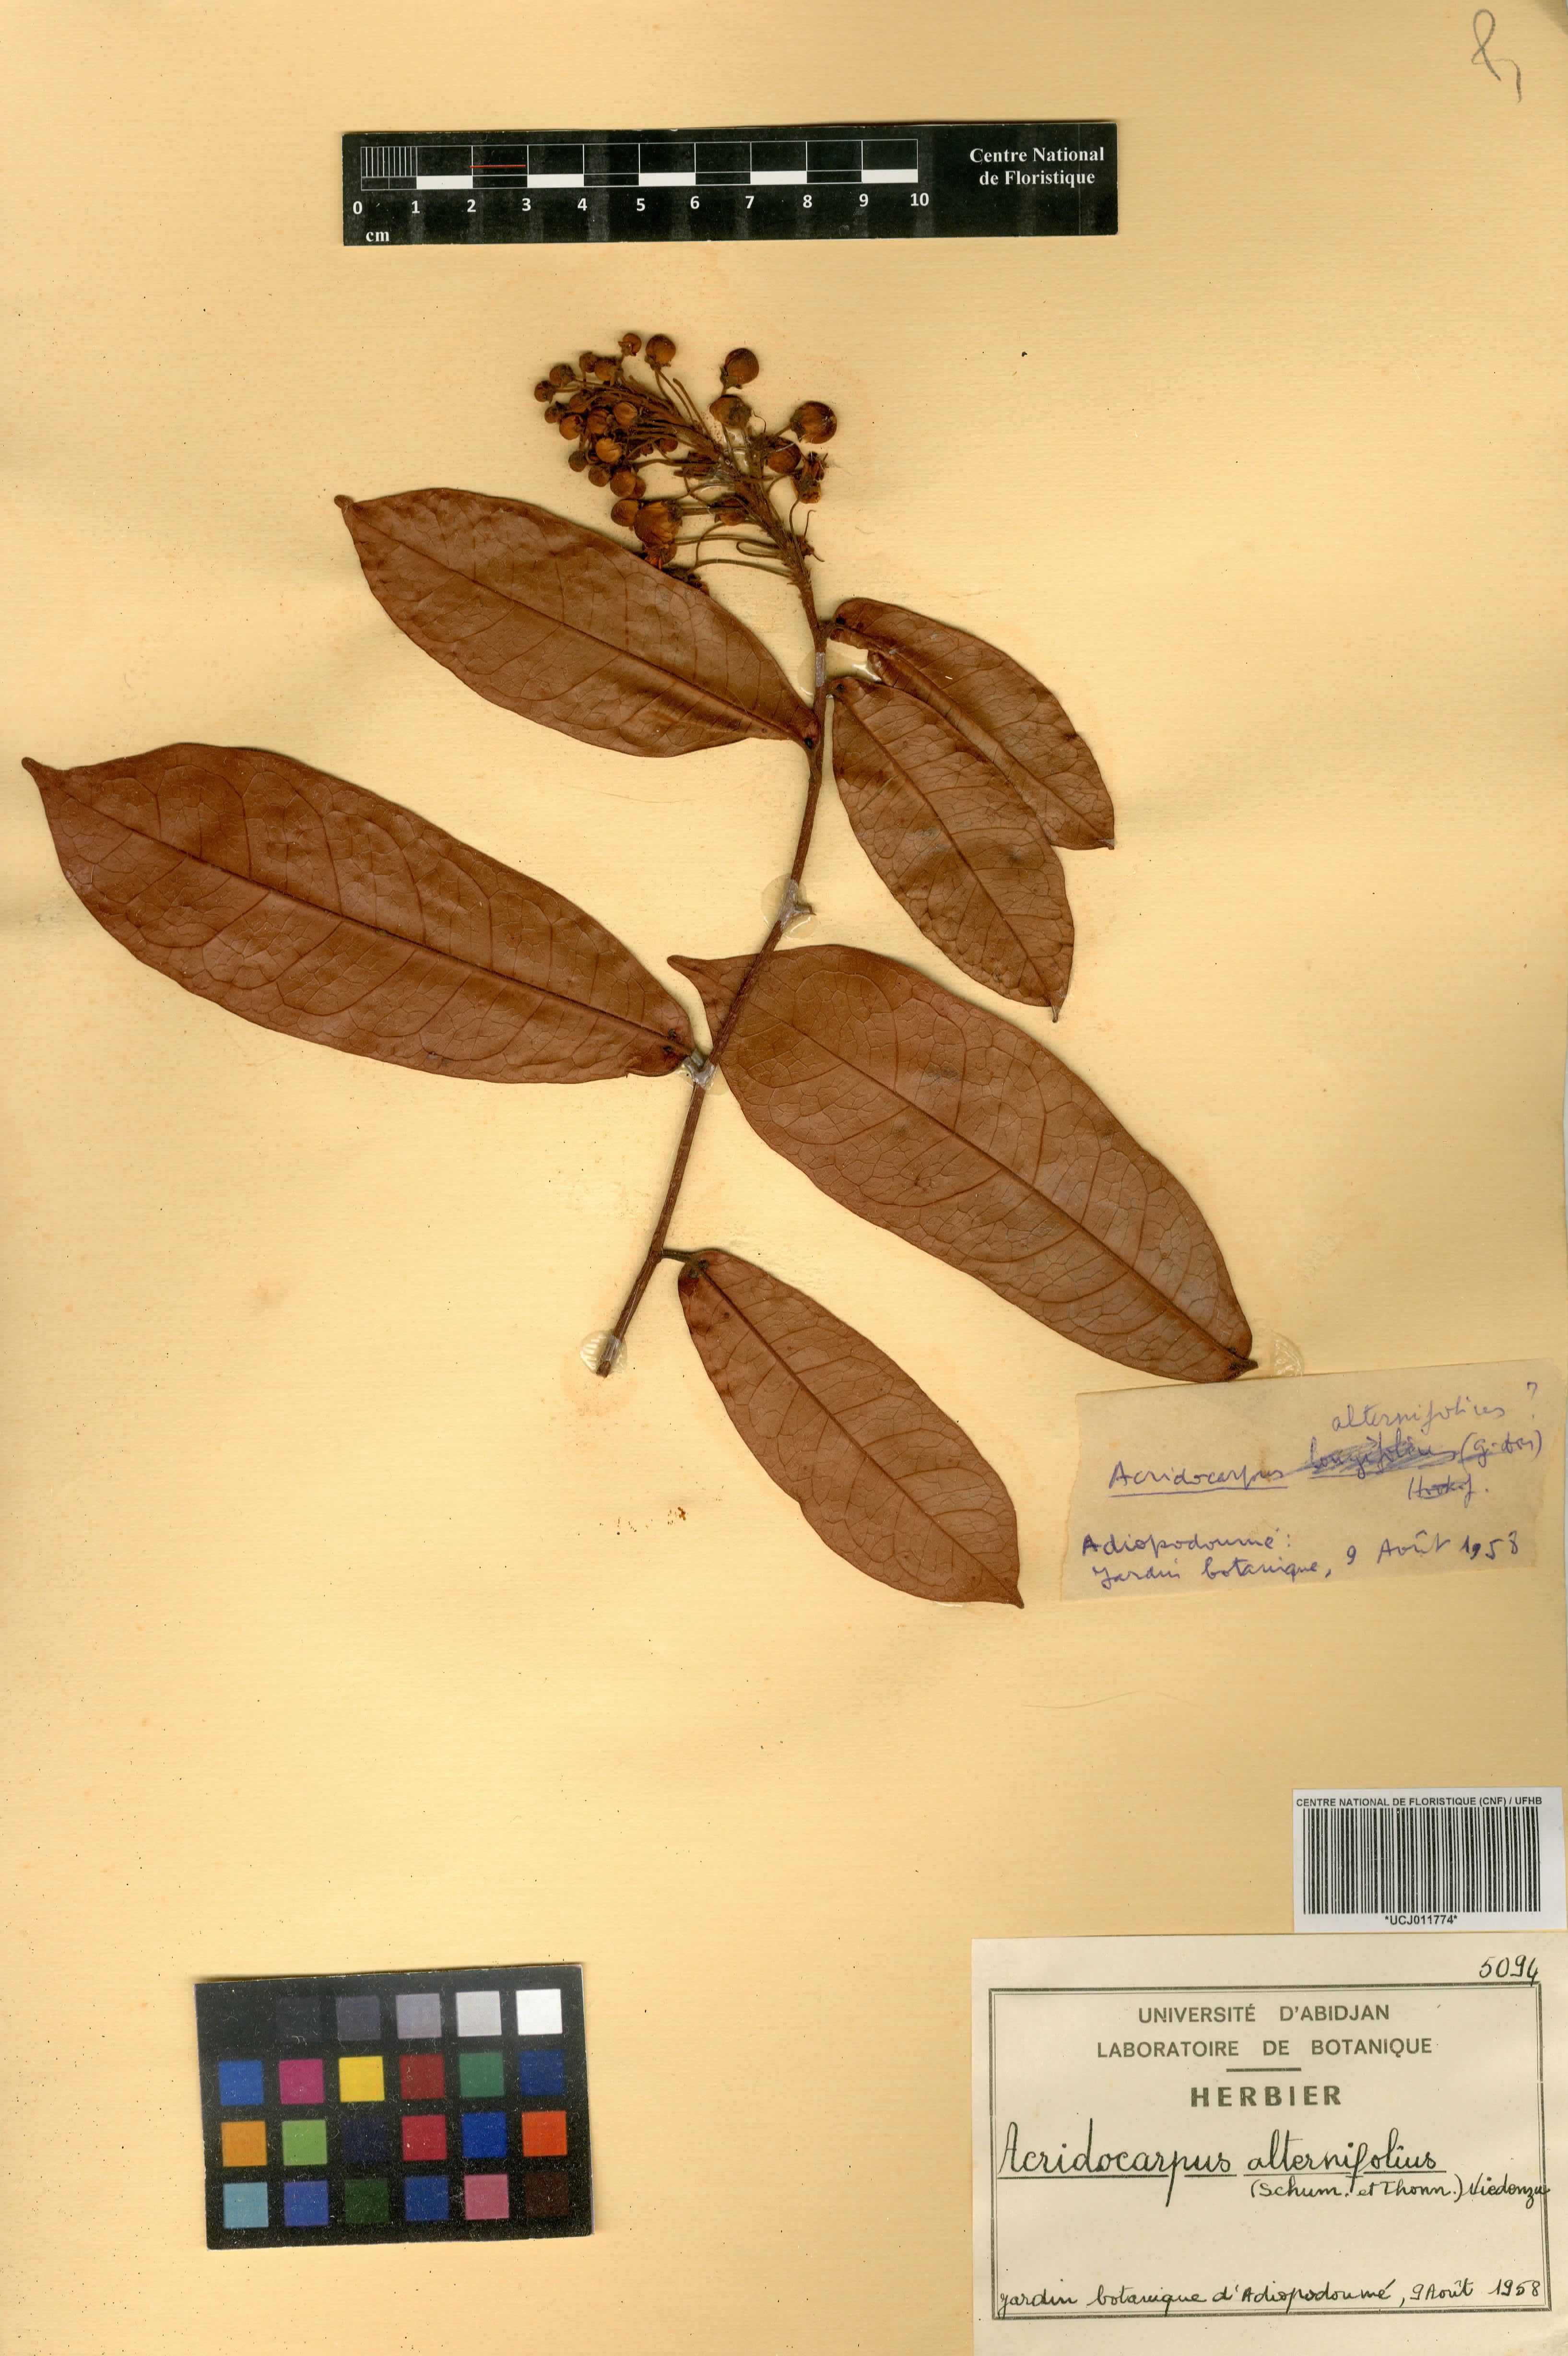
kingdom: Plantae
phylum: Tracheophyta
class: Magnoliopsida
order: Malpighiales
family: Malpighiaceae
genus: Acridocarpus
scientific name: Acridocarpus alternifolius
